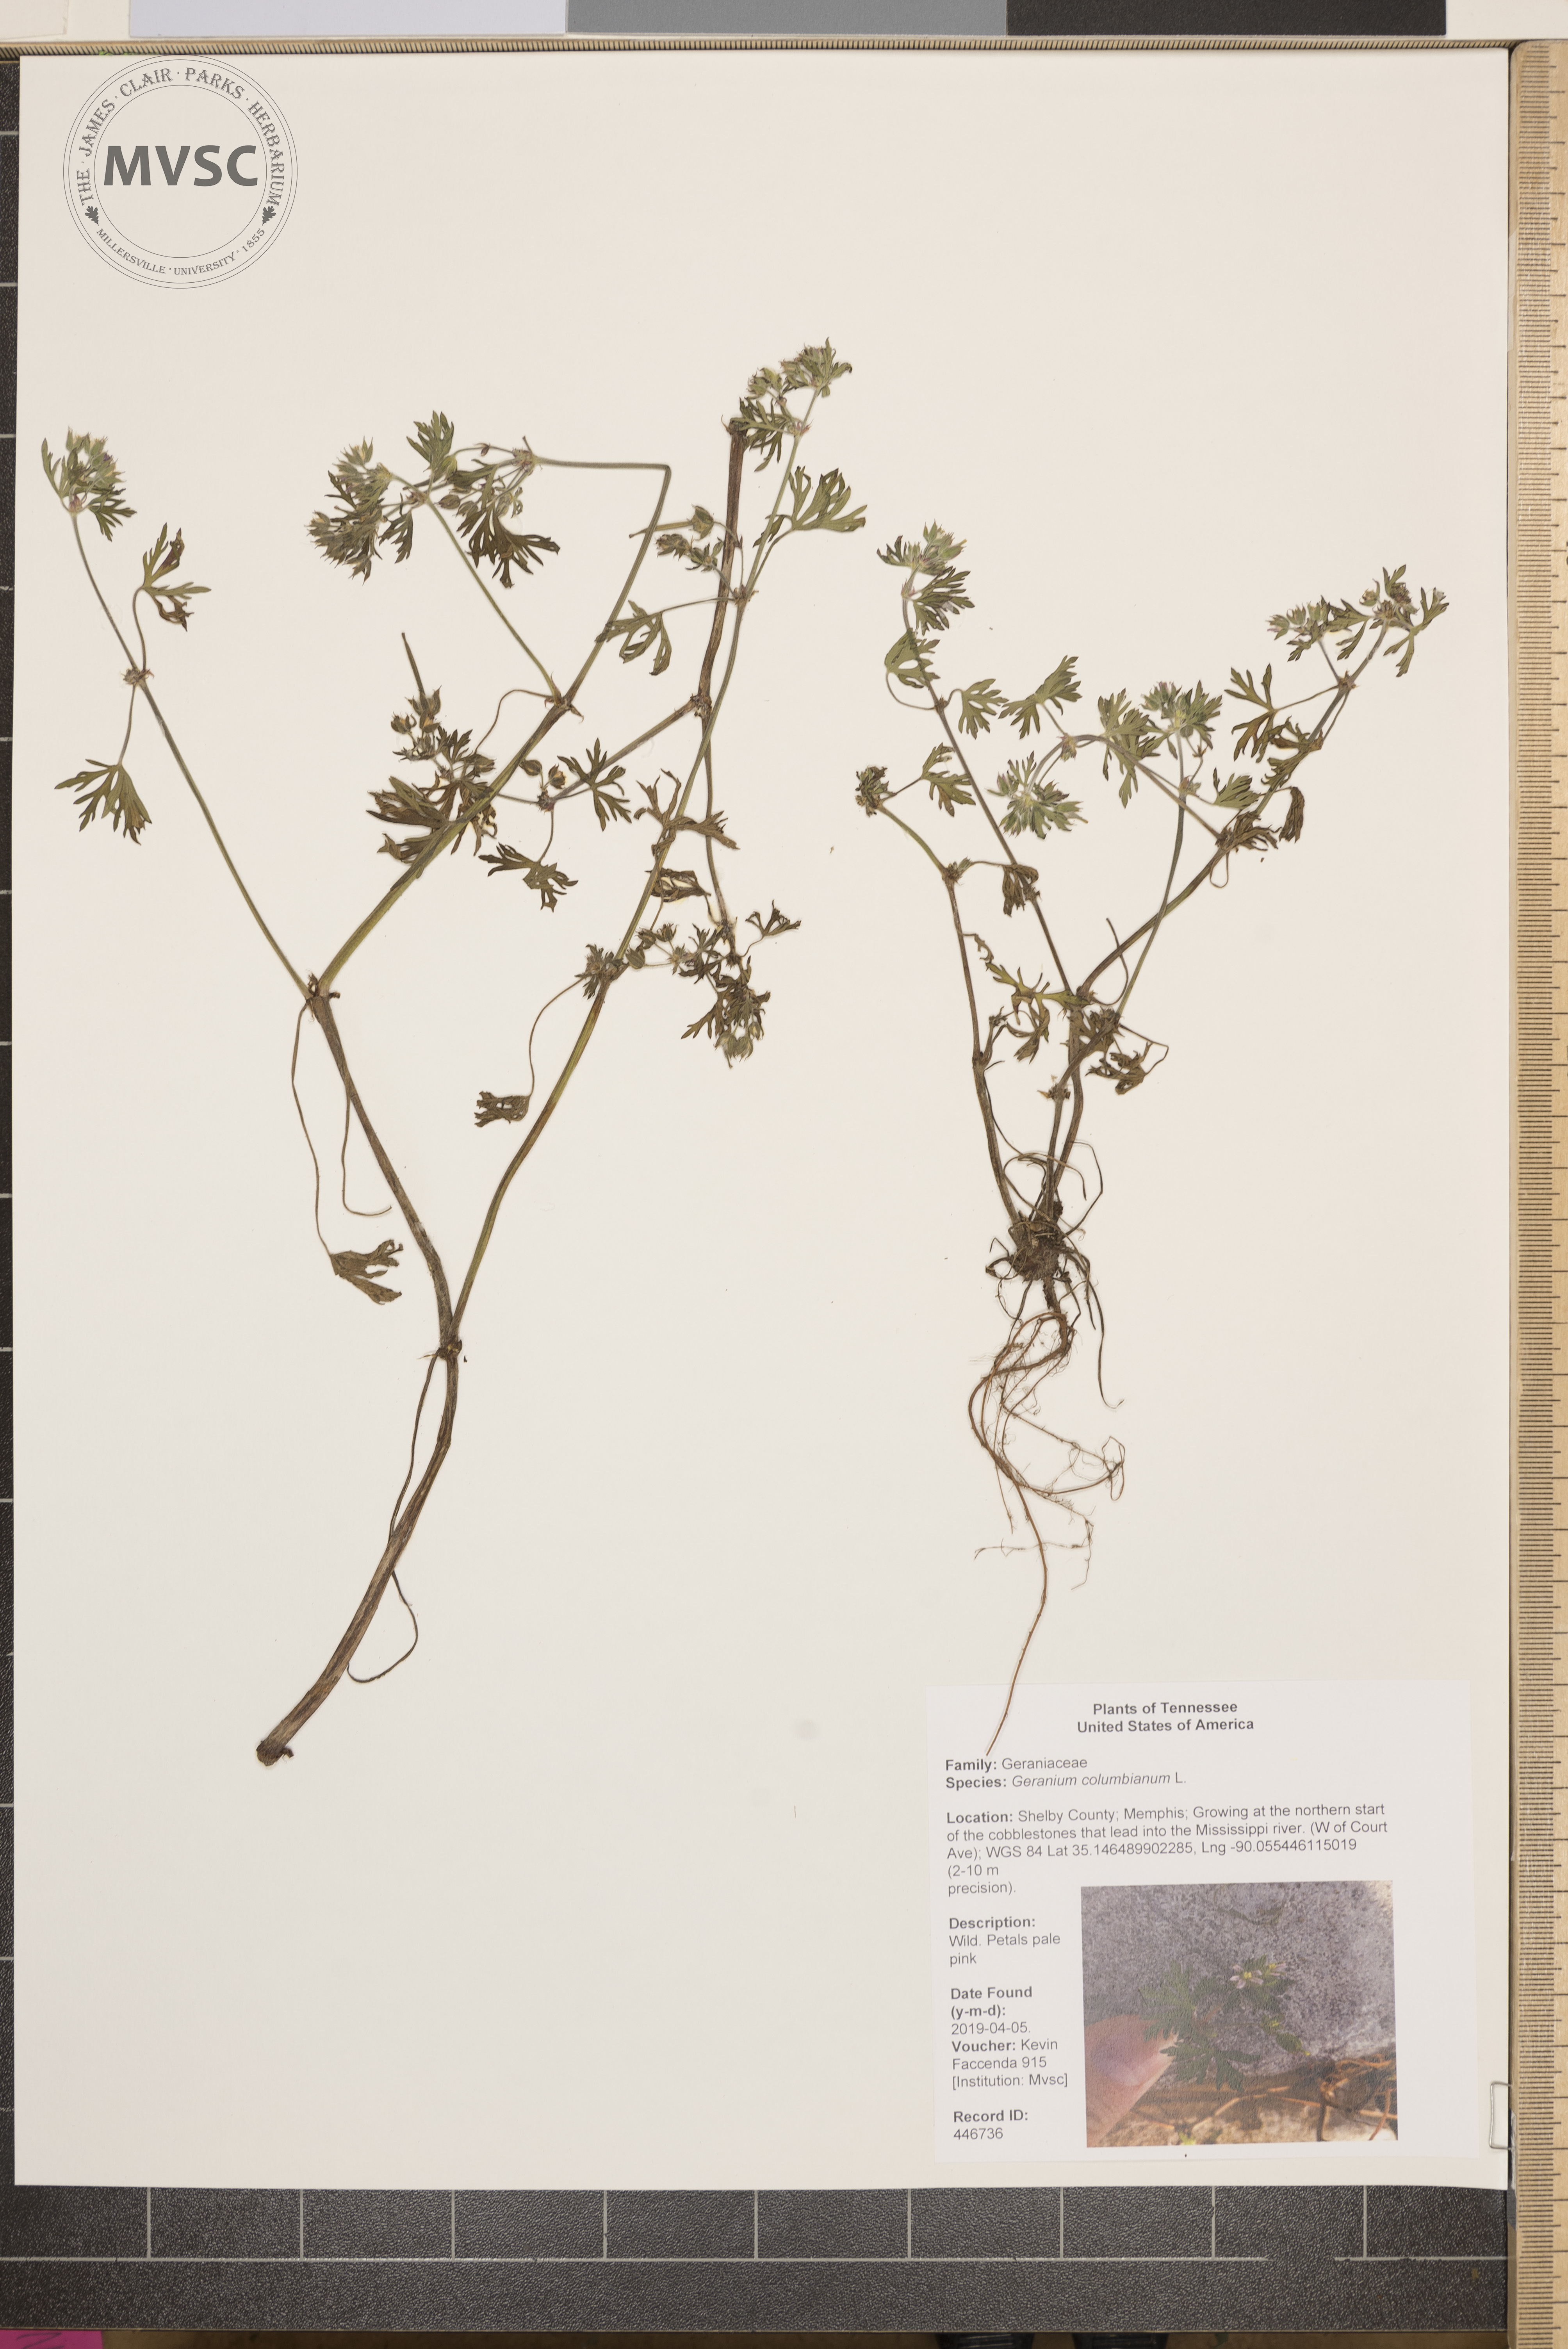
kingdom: Plantae
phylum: Tracheophyta
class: Magnoliopsida
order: Geraniales
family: Geraniaceae
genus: Geranium
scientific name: Geranium columbinum
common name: Long-stalked crane's-bill
